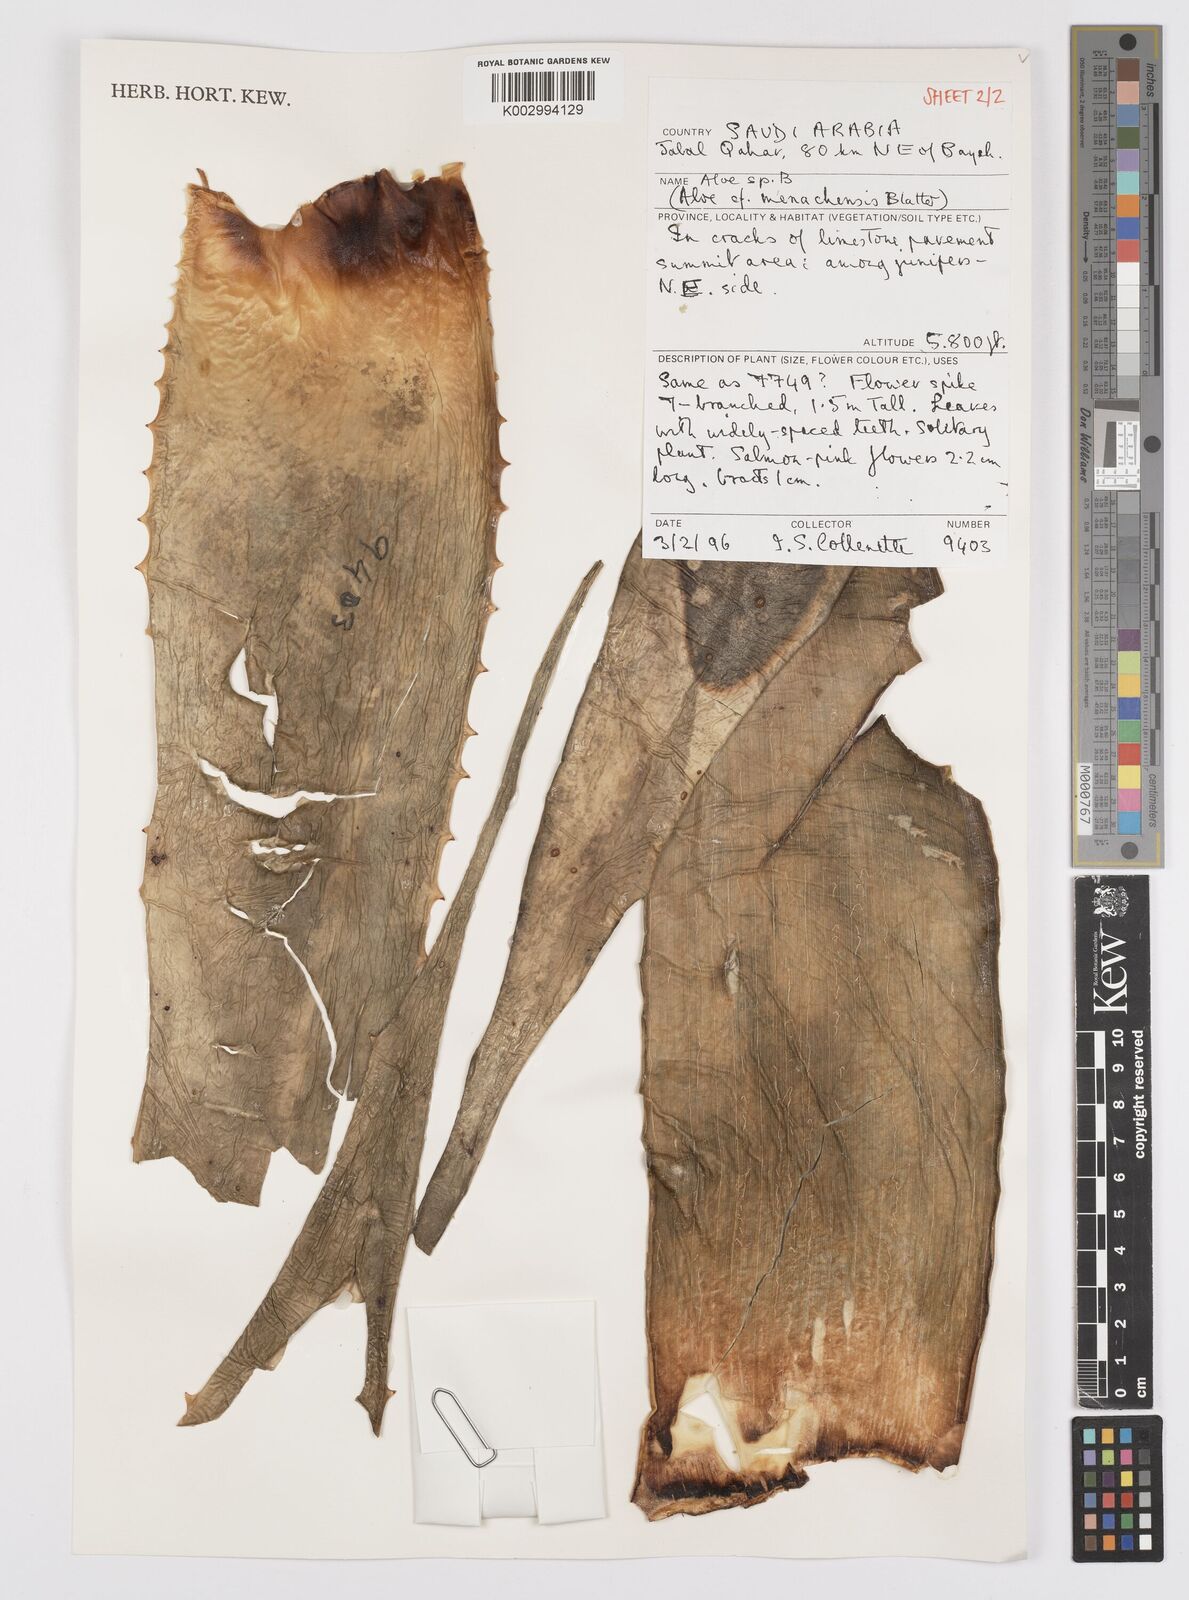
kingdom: Plantae
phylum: Tracheophyta
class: Liliopsida
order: Asparagales
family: Asphodelaceae
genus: Aloe
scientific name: Aloe
